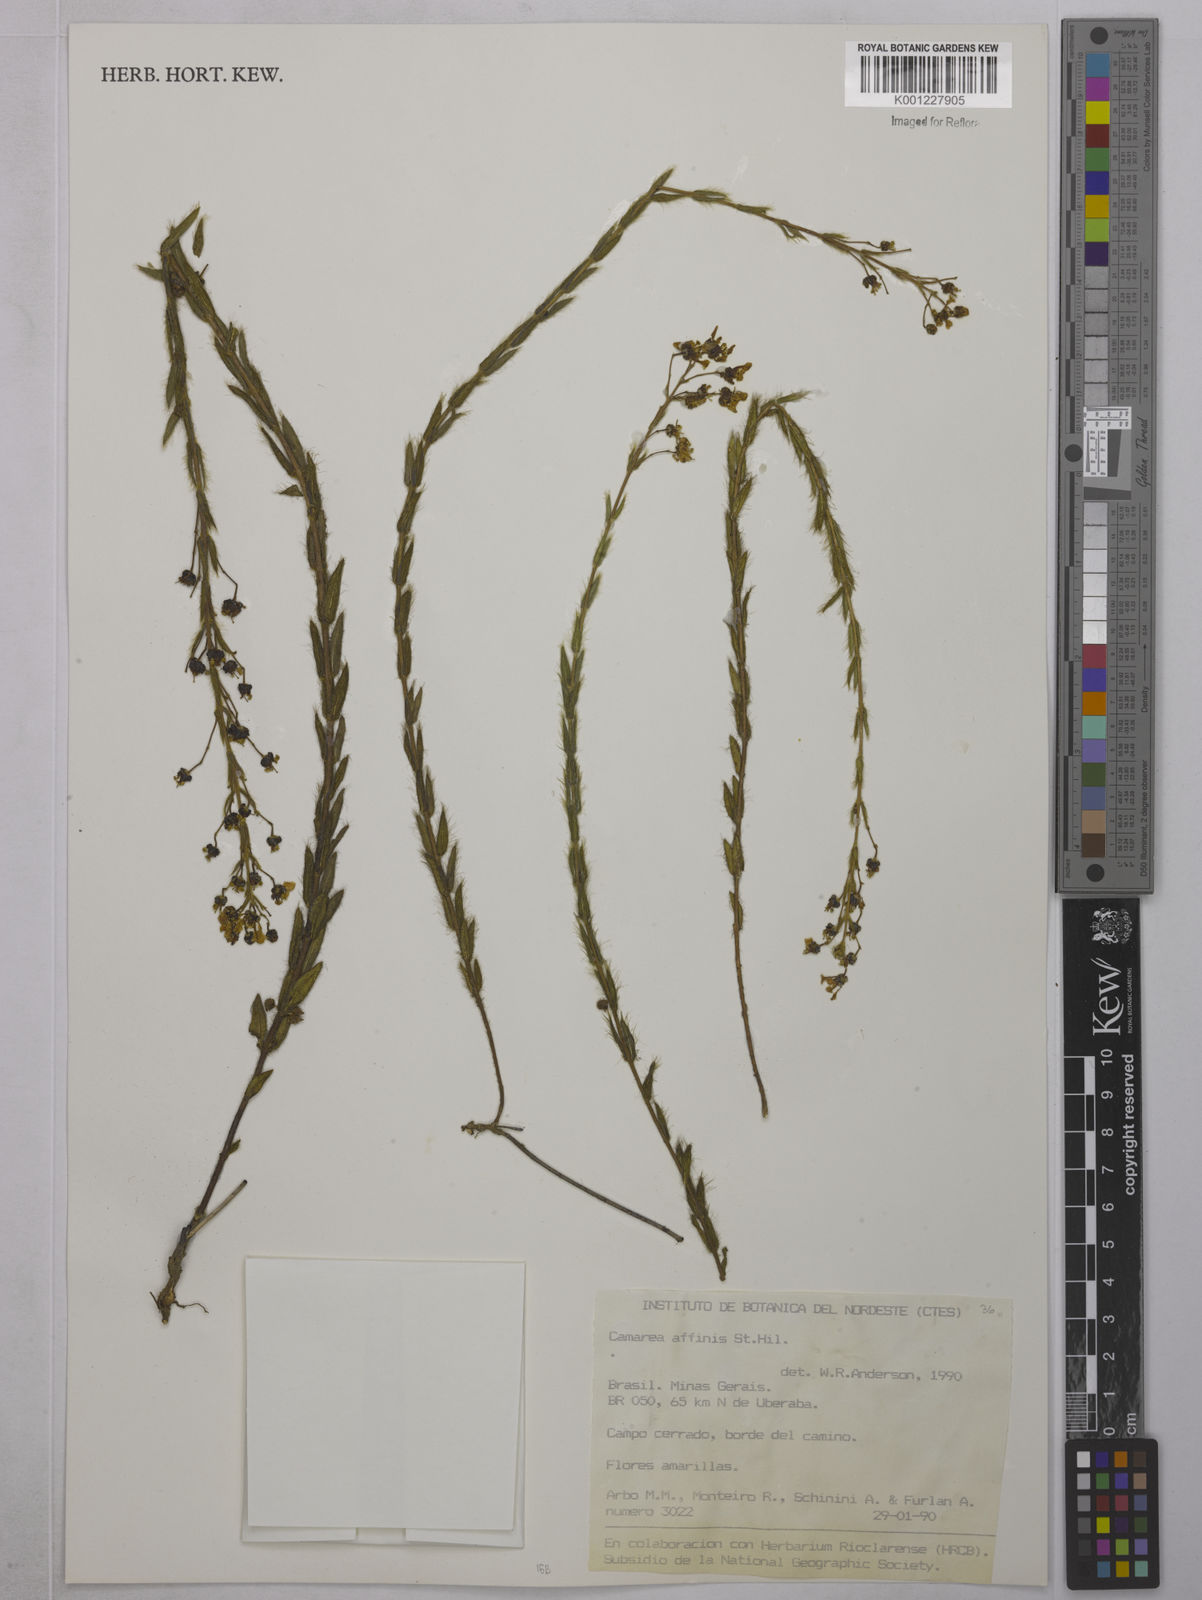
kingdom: Plantae
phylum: Tracheophyta
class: Magnoliopsida
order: Malpighiales
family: Malpighiaceae
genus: Camarea
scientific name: Camarea affinis
